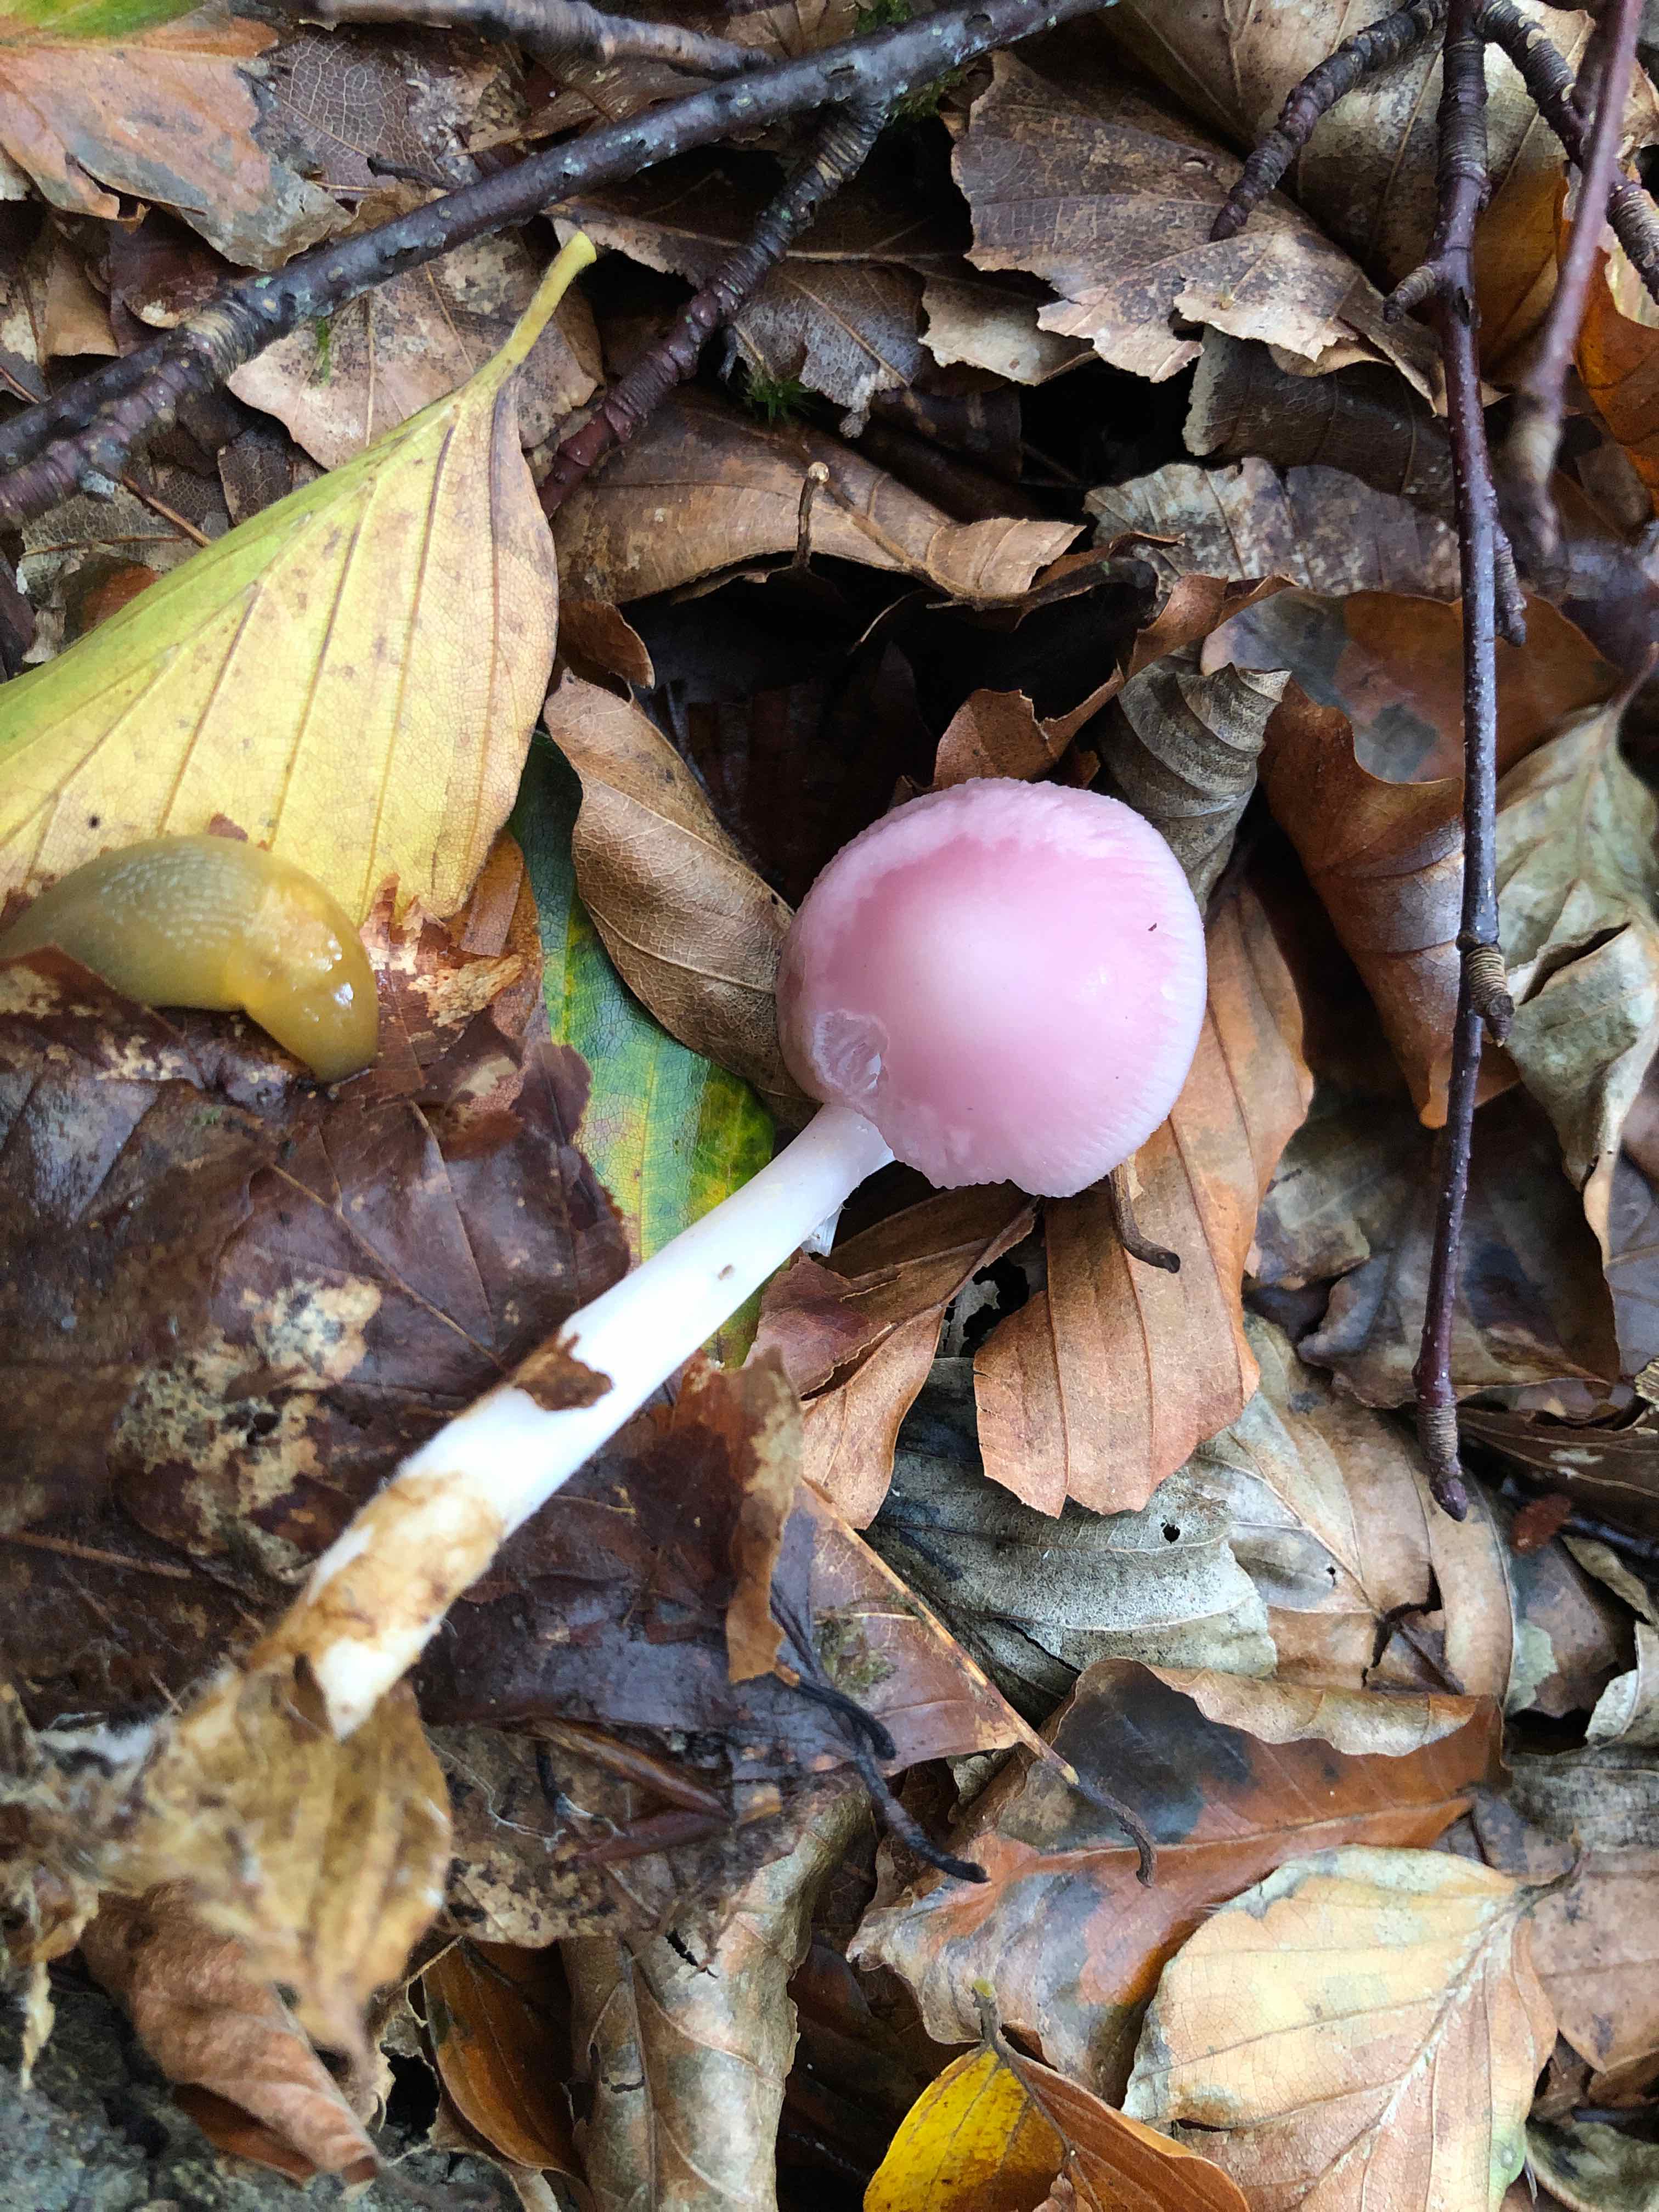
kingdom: Fungi
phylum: Basidiomycota
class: Agaricomycetes
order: Agaricales
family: Mycenaceae
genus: Mycena
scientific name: Mycena rosea
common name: rosa huesvamp
